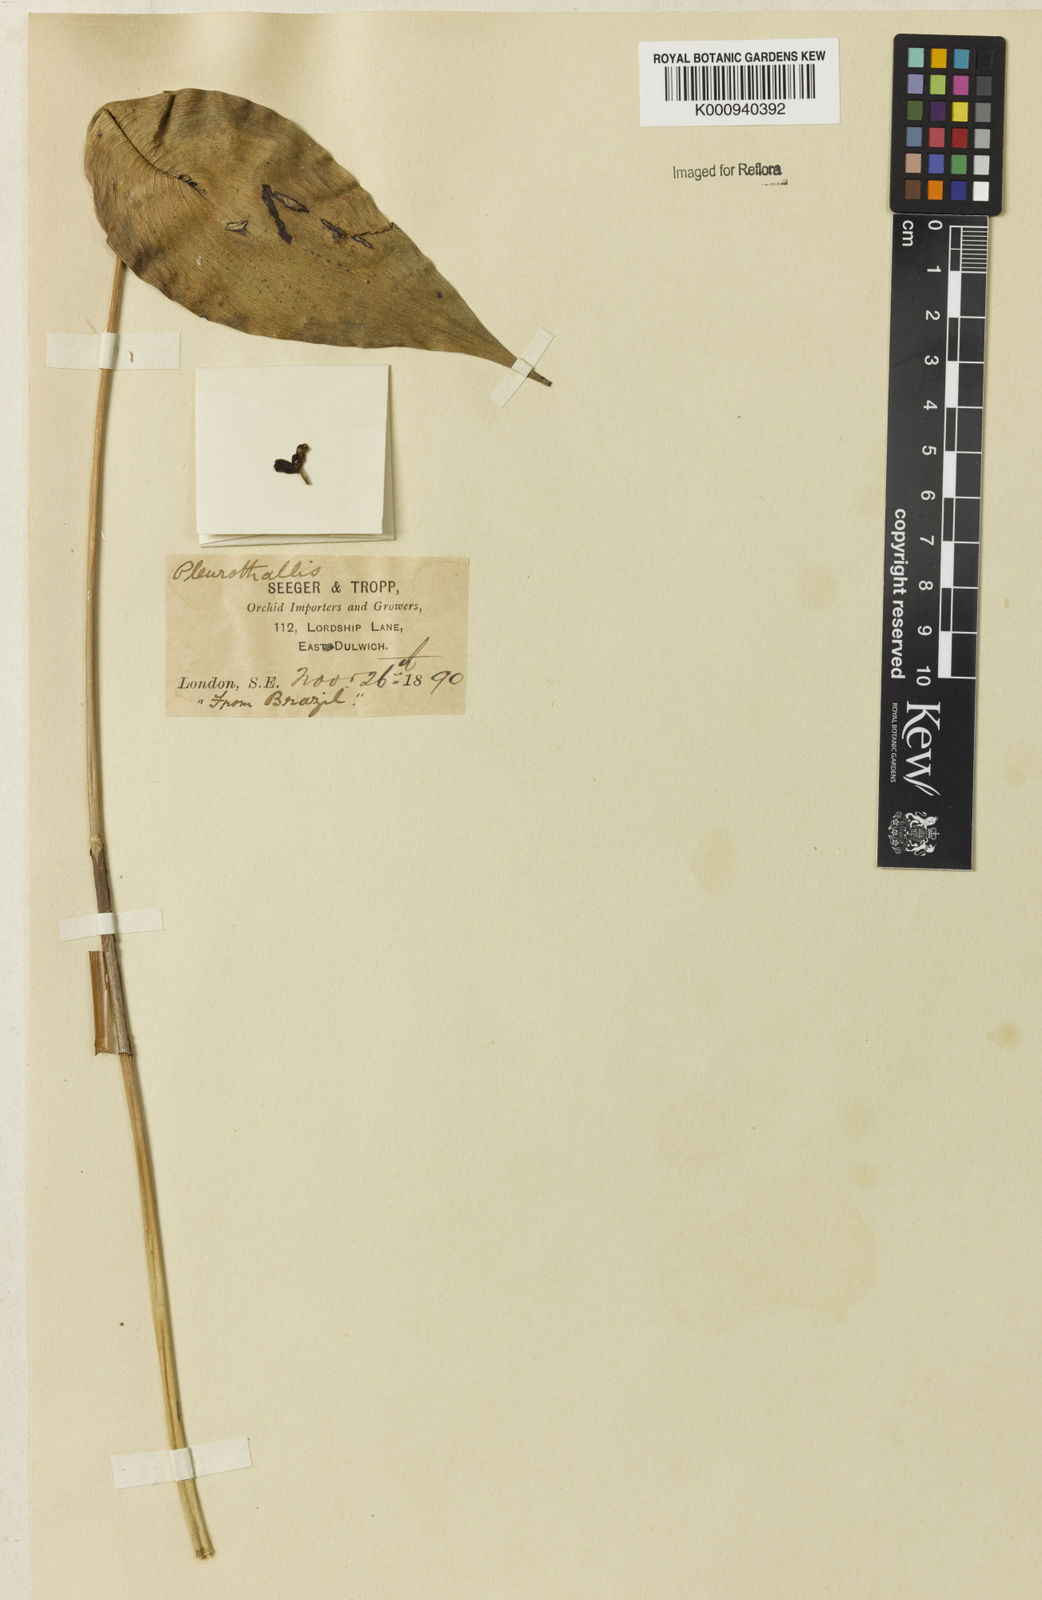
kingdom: Plantae
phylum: Tracheophyta
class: Liliopsida
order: Asparagales
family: Orchidaceae
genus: Pleurothallis
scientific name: Pleurothallis
